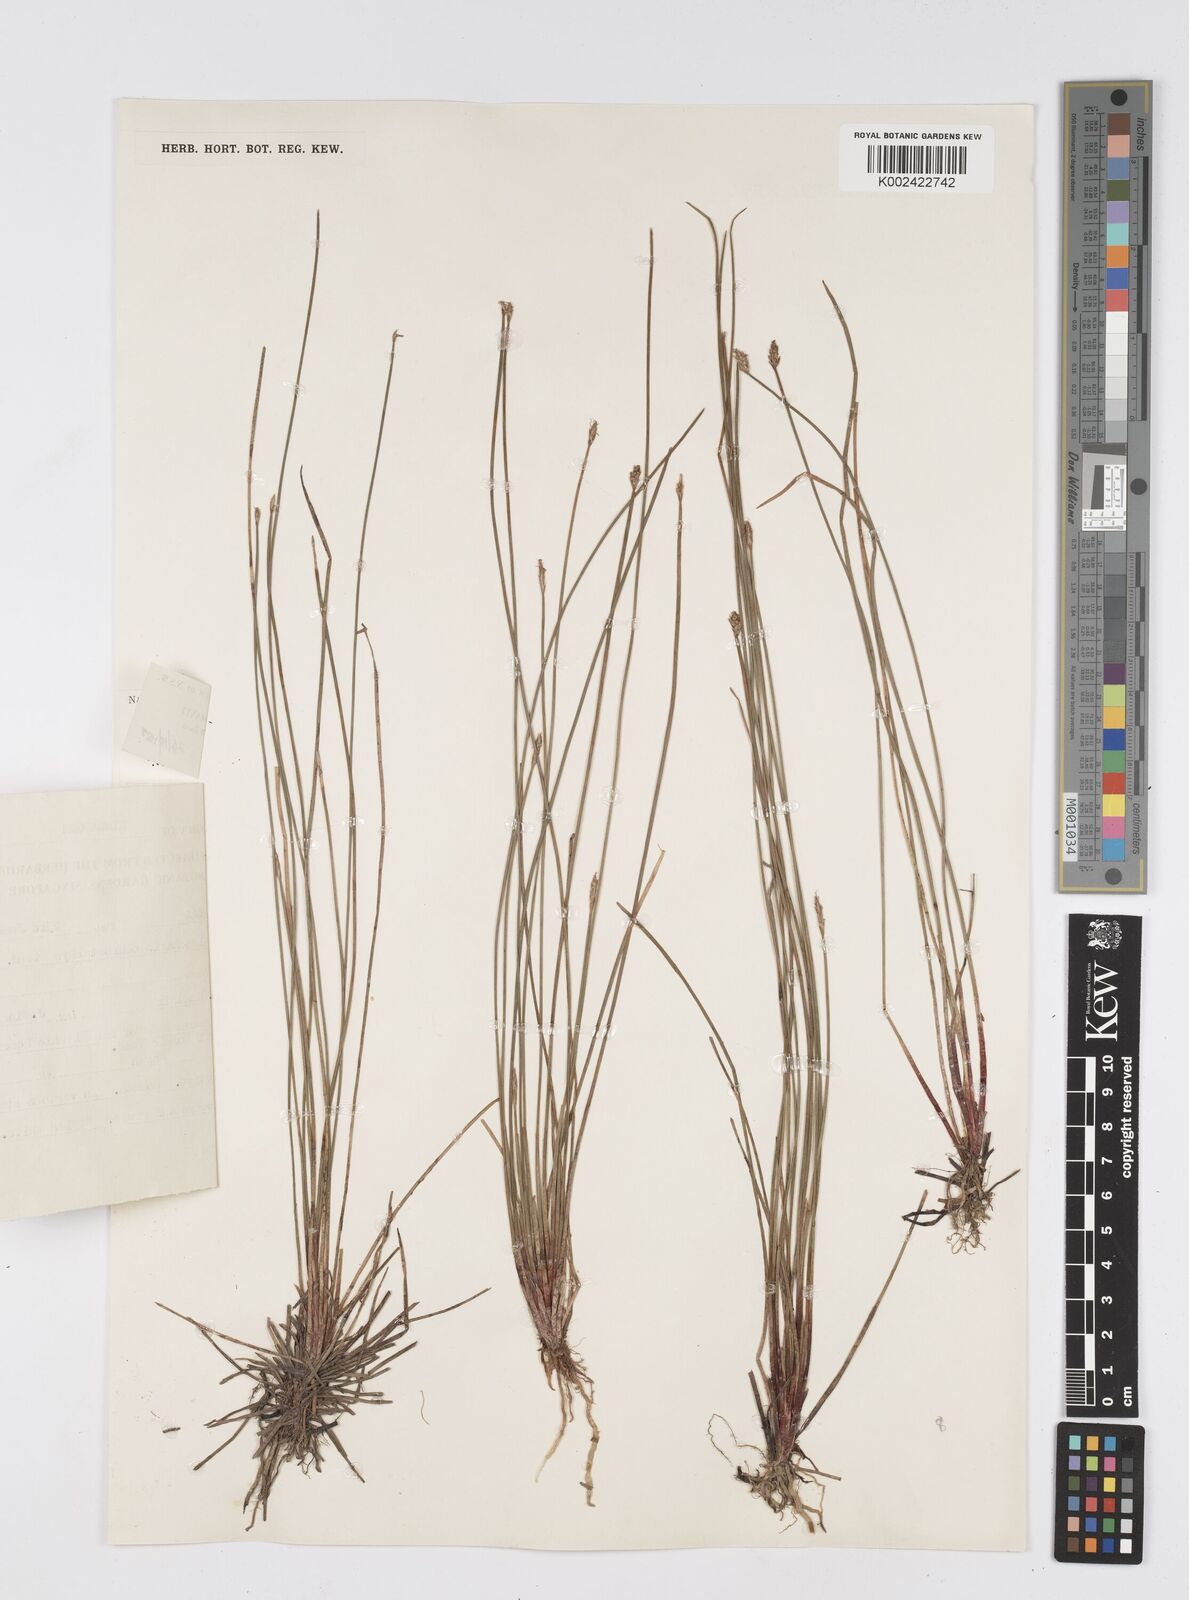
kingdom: Plantae
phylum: Tracheophyta
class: Liliopsida
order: Poales
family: Cyperaceae
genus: Eleocharis
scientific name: Eleocharis ochrostachys
